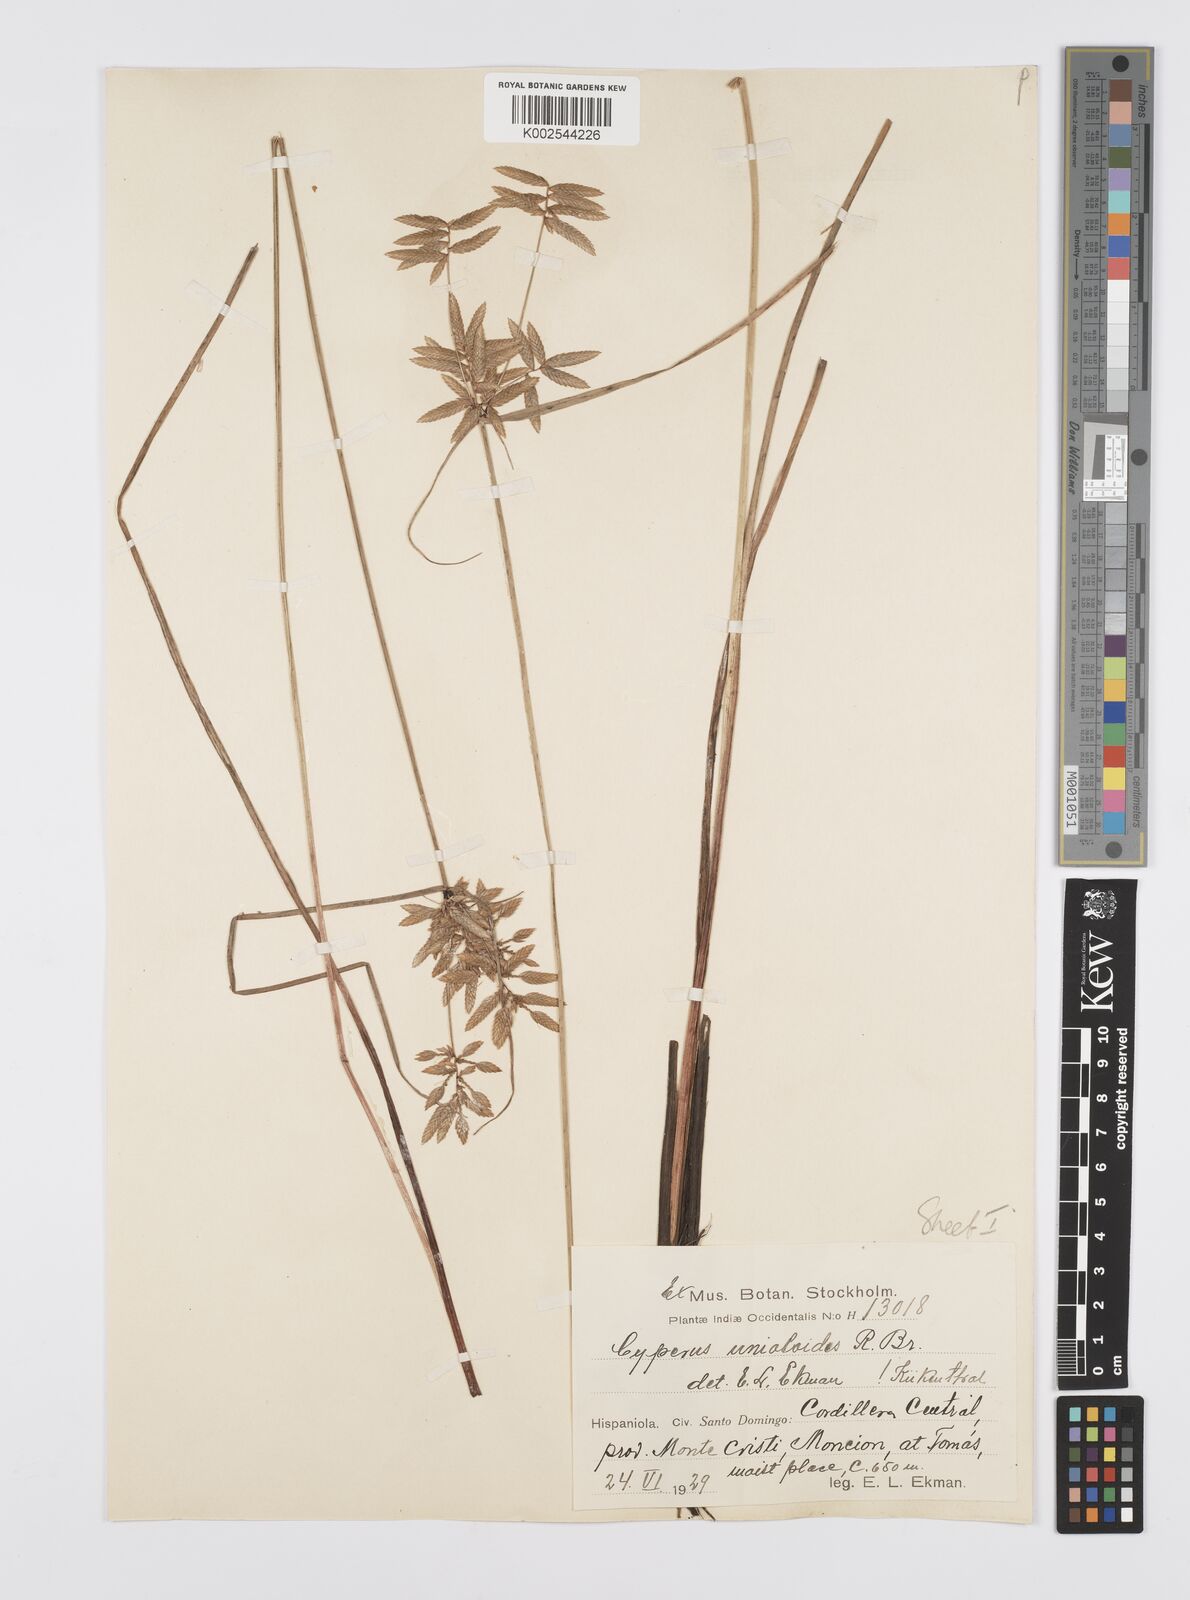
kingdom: Plantae
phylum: Tracheophyta
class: Liliopsida
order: Poales
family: Cyperaceae
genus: Cyperus
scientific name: Cyperus unioloides
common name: Uniola flatsedge
